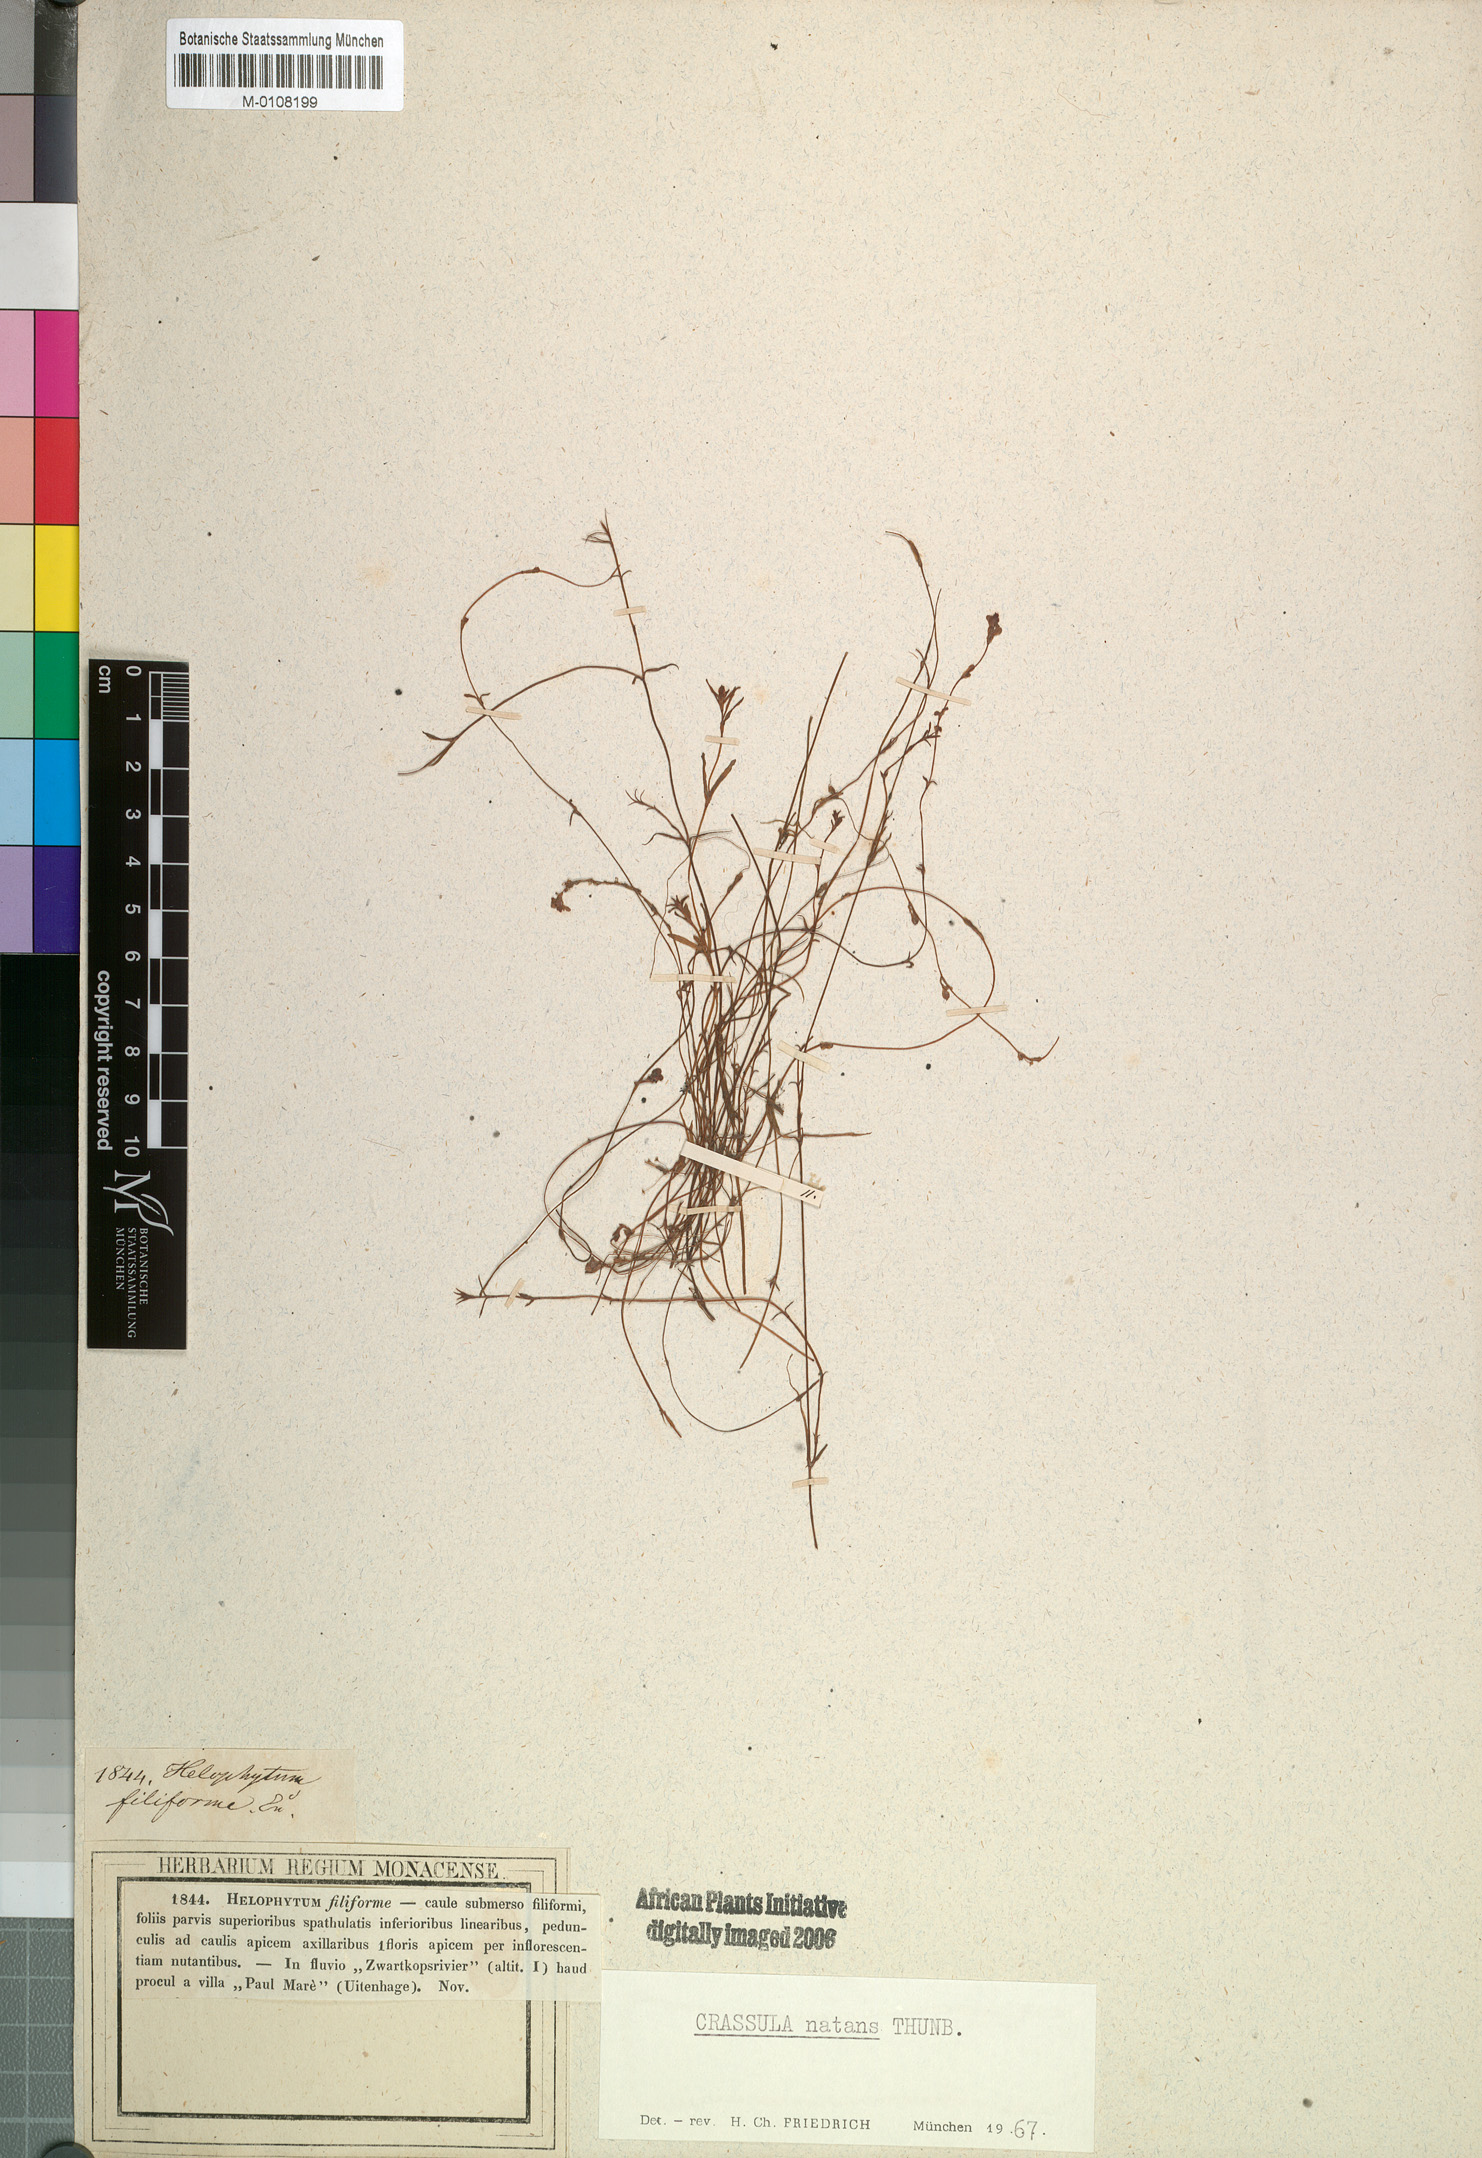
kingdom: Plantae
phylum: Tracheophyta
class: Magnoliopsida
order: Saxifragales
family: Crassulaceae
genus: Crassula
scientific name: Crassula natans
